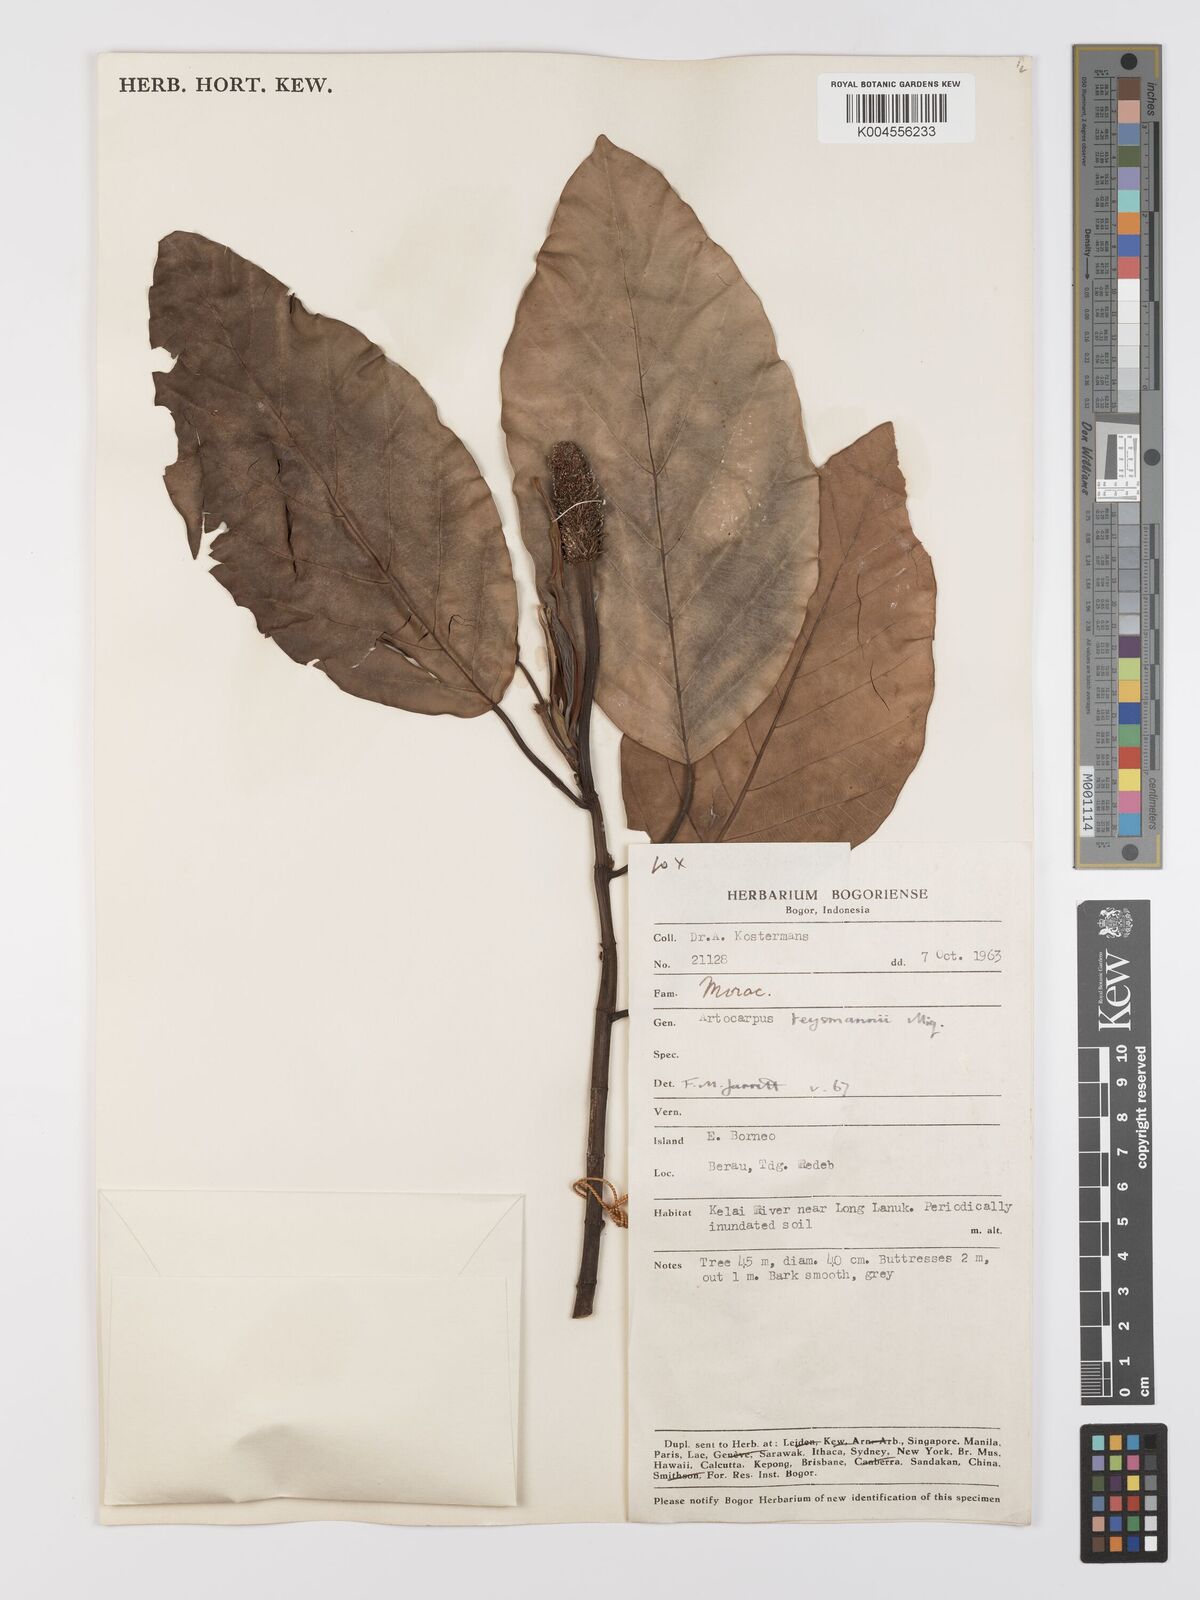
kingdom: Plantae
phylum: Tracheophyta
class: Magnoliopsida
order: Rosales
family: Moraceae
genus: Artocarpus
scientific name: Artocarpus teysmannii
